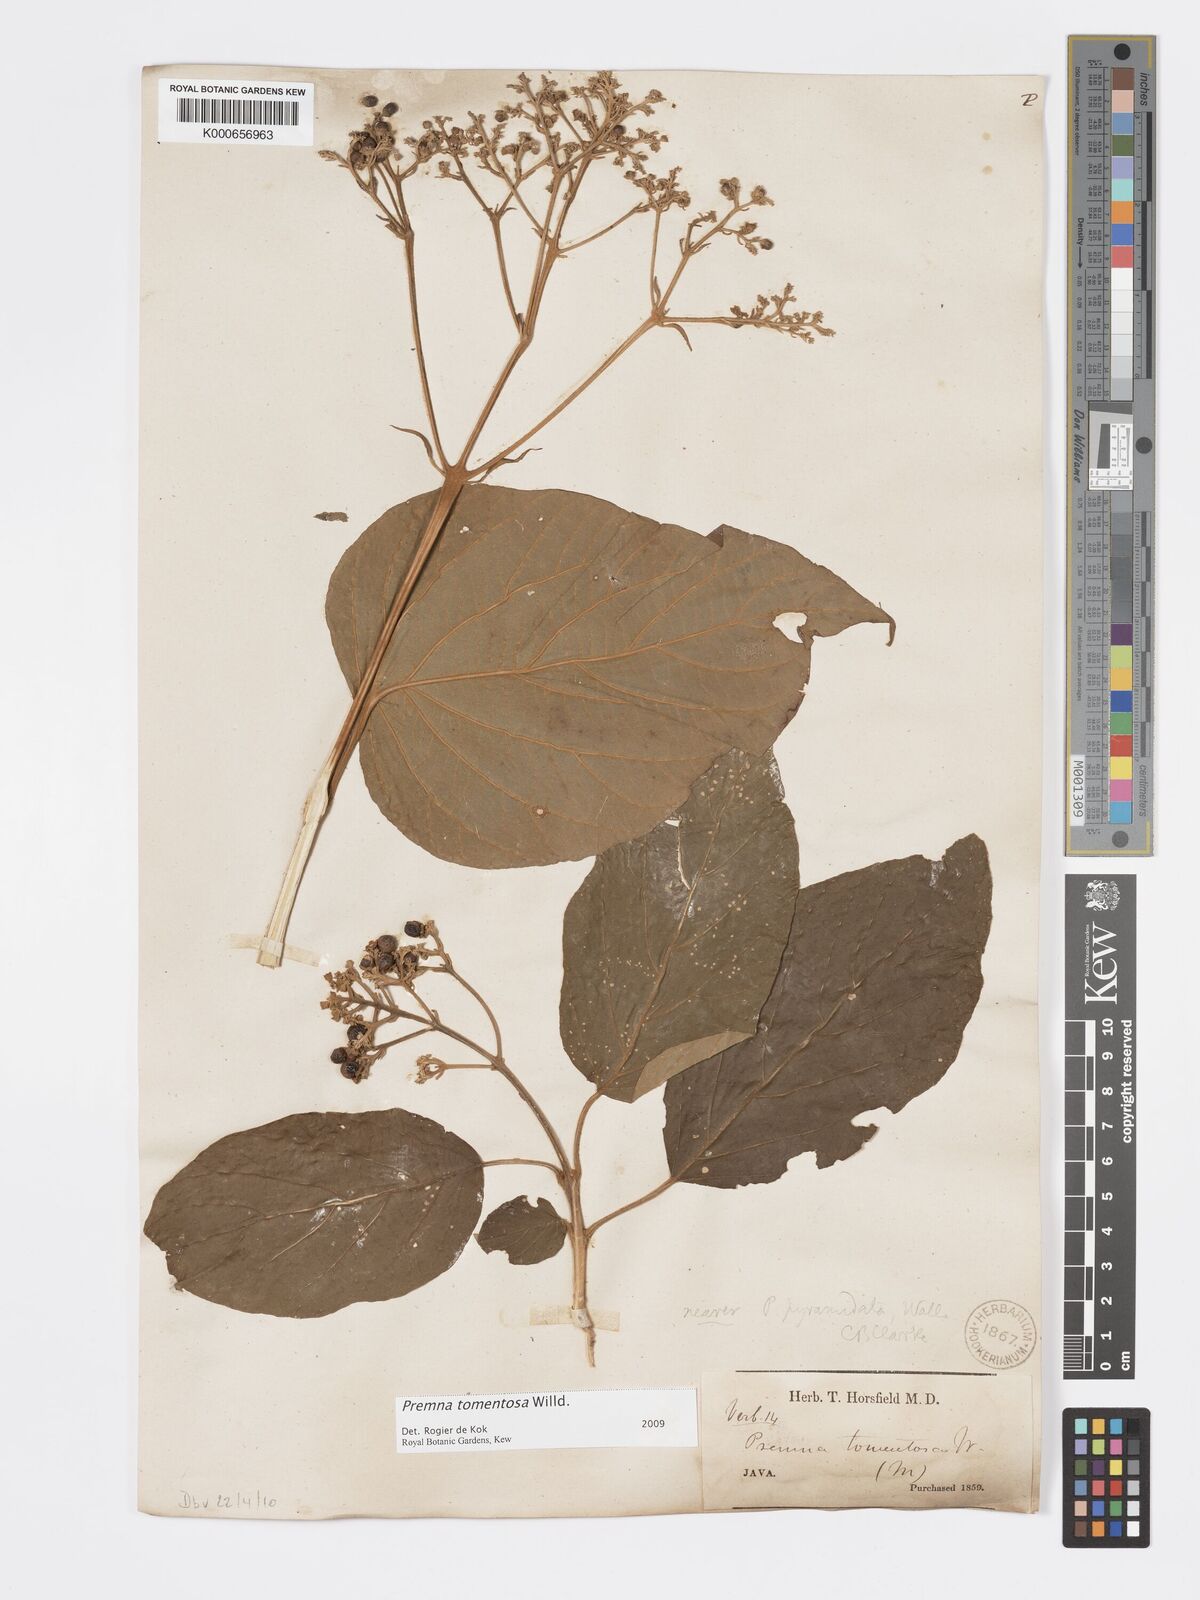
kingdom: Plantae
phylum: Tracheophyta
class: Magnoliopsida
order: Lamiales
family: Lamiaceae
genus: Premna
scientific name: Premna tomentosa
